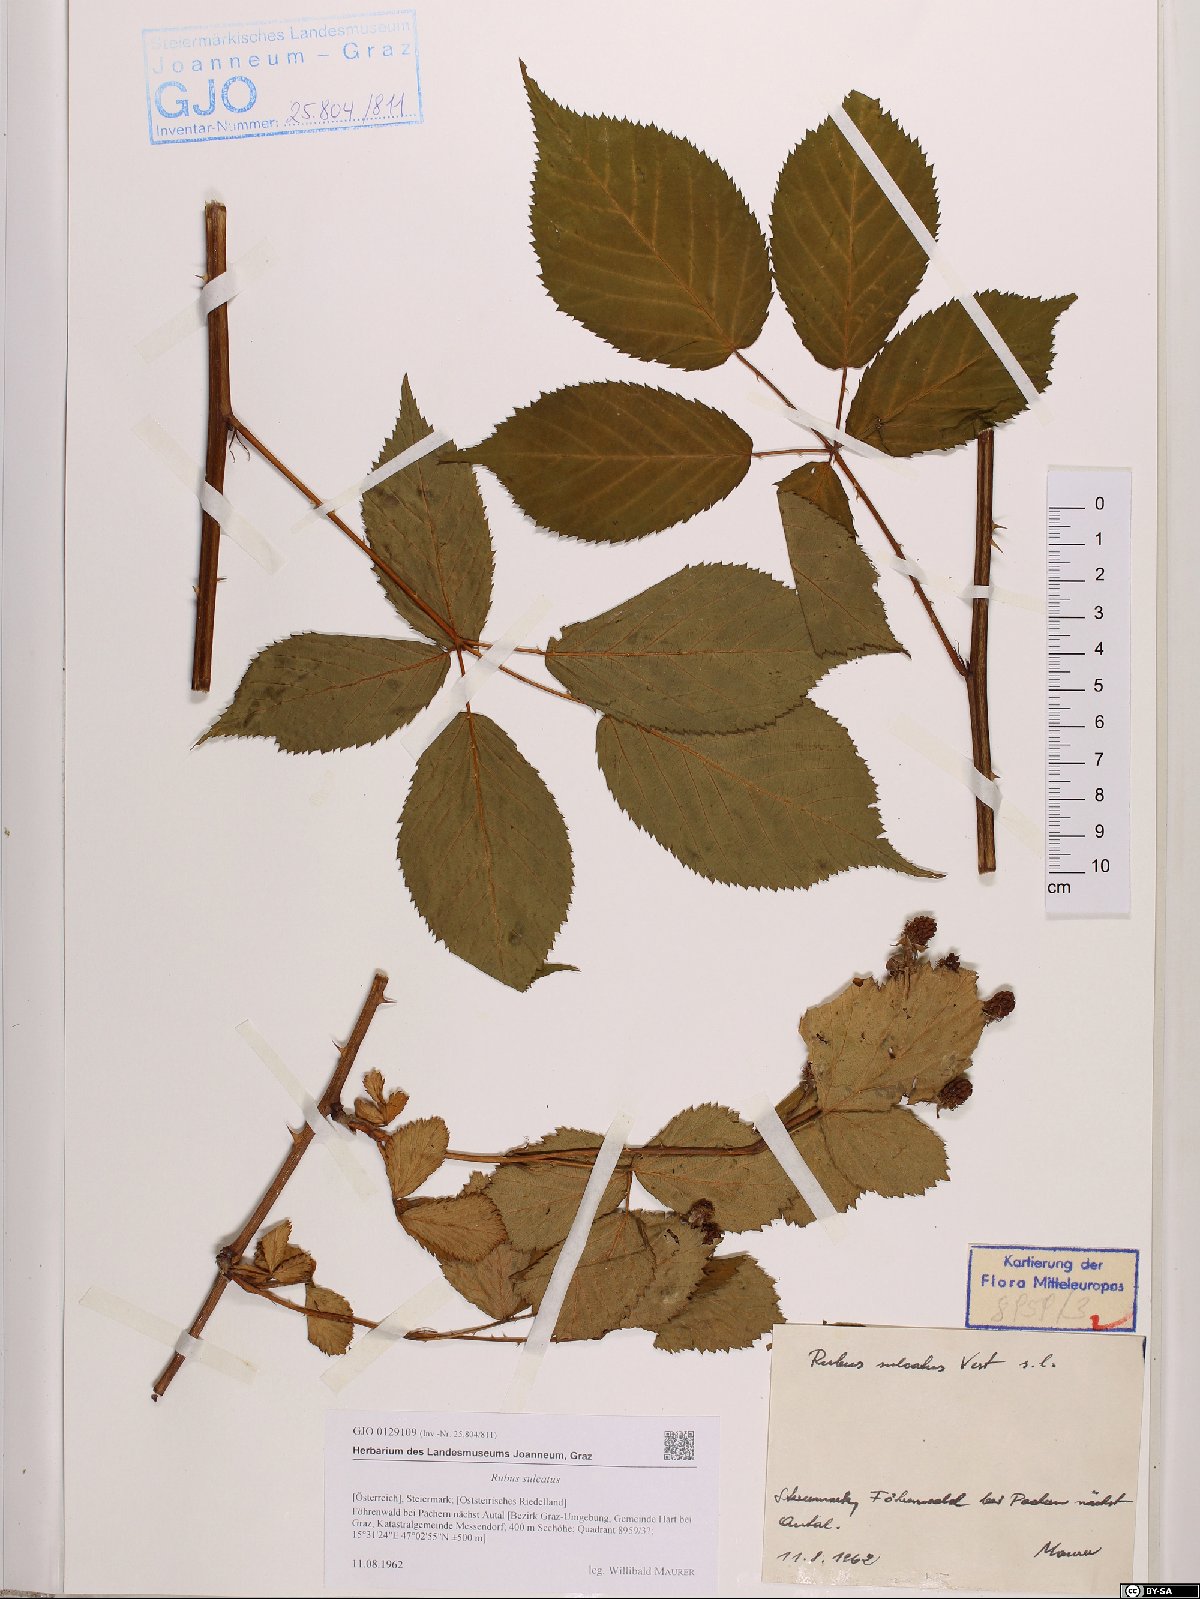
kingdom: Plantae
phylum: Tracheophyta
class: Magnoliopsida
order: Rosales
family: Rosaceae
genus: Rubus
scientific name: Rubus sulcatus
